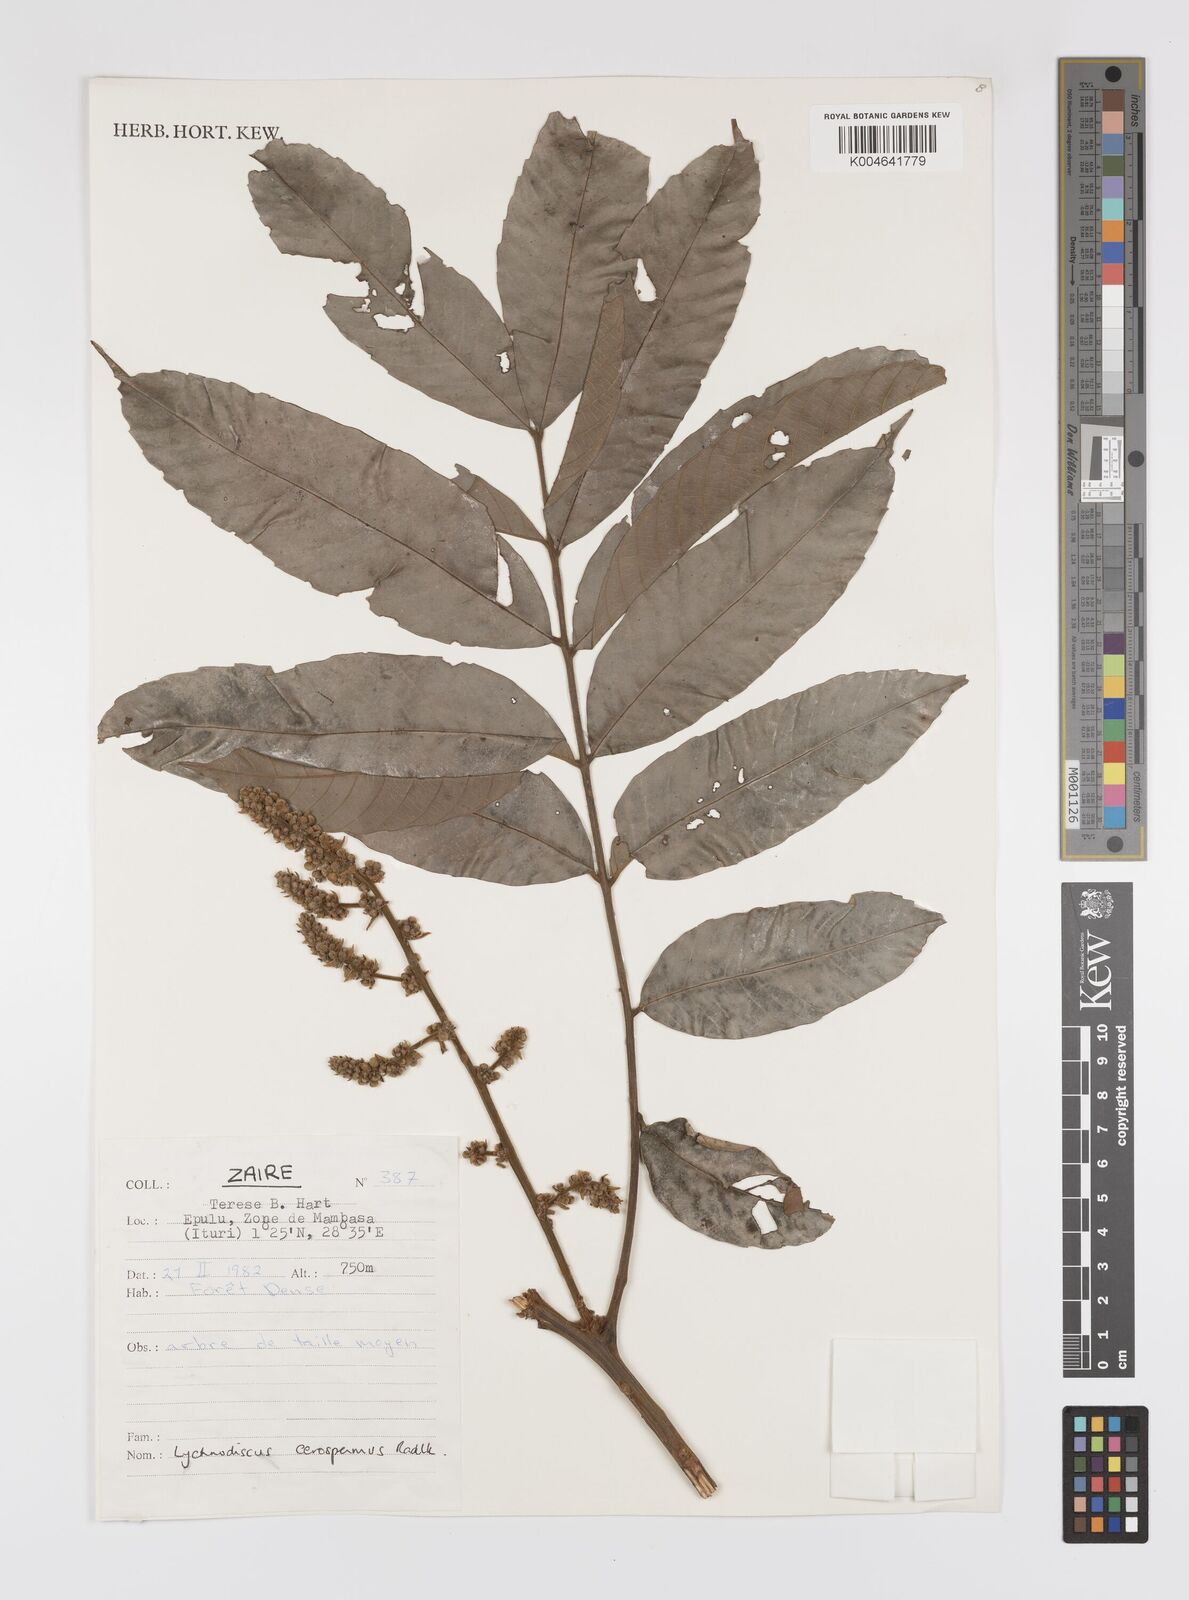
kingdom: Plantae
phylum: Tracheophyta
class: Magnoliopsida
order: Sapindales
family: Sapindaceae
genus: Lychnodiscus
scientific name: Lychnodiscus cerospermus
